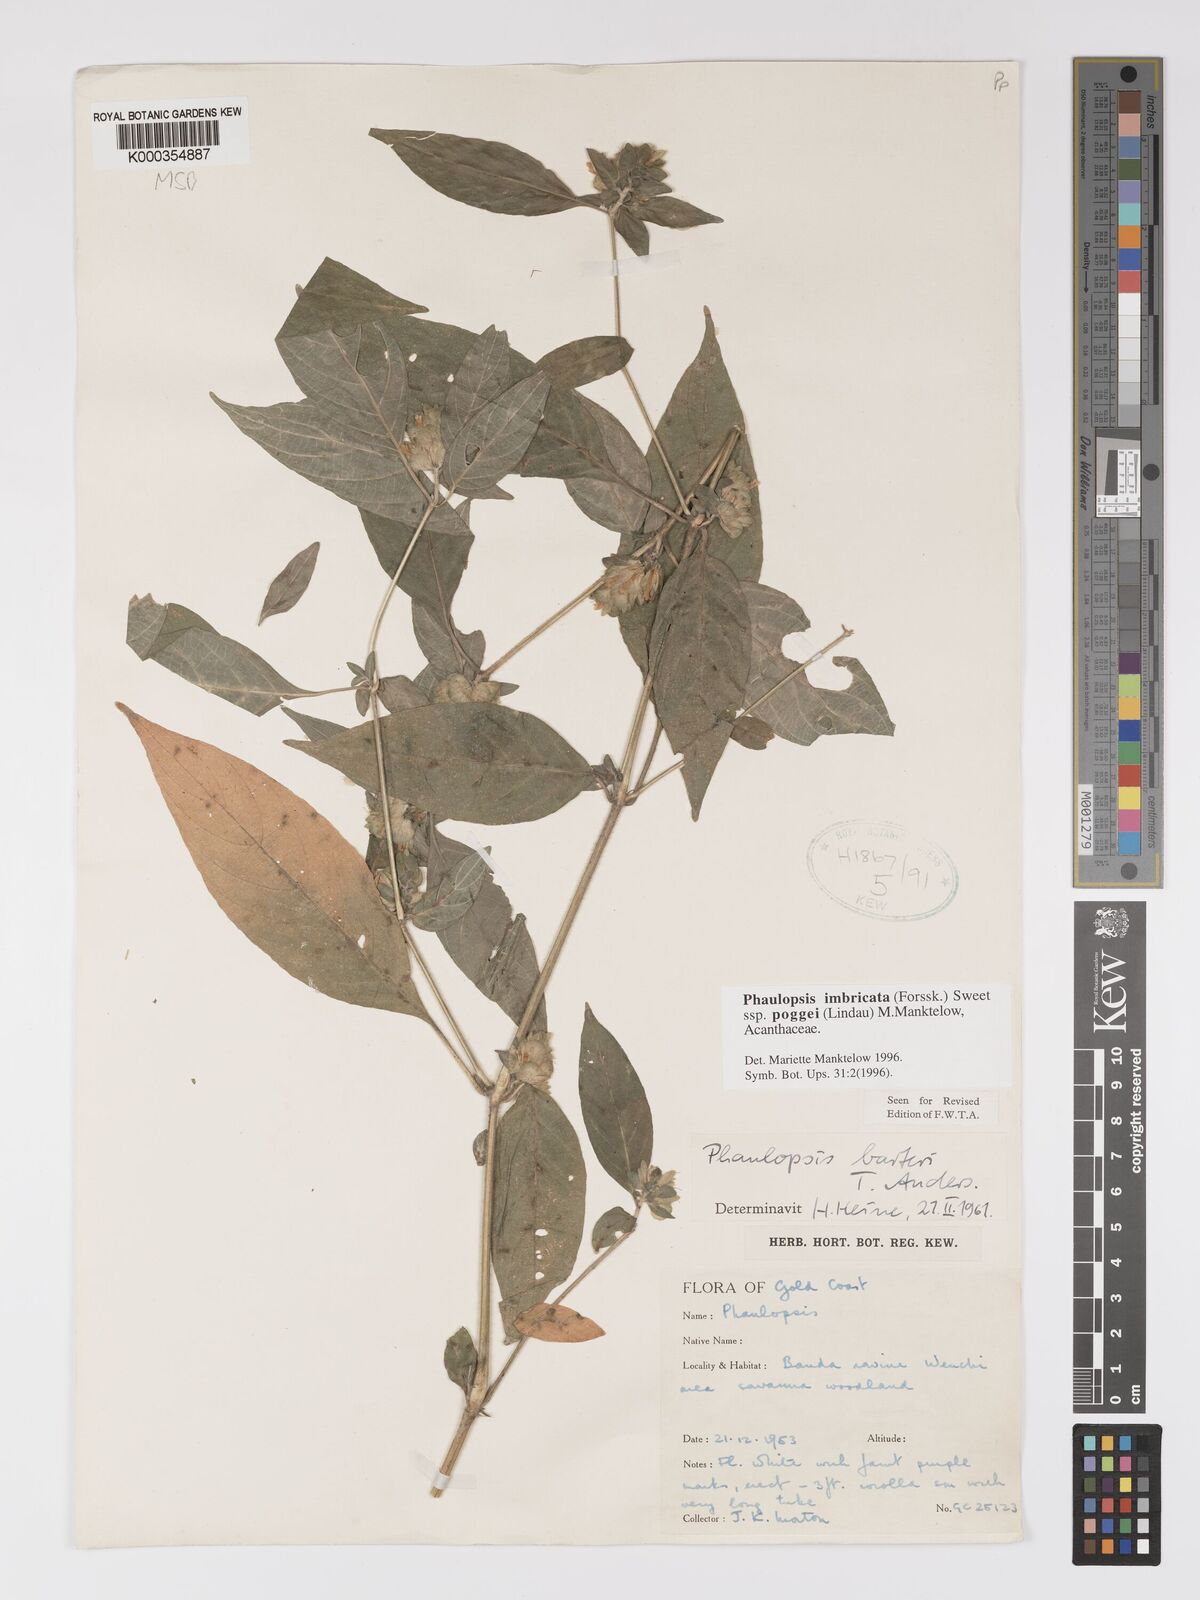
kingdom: Plantae
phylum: Tracheophyta
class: Magnoliopsida
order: Lamiales
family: Acanthaceae
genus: Phaulopsis
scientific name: Phaulopsis imbricata
